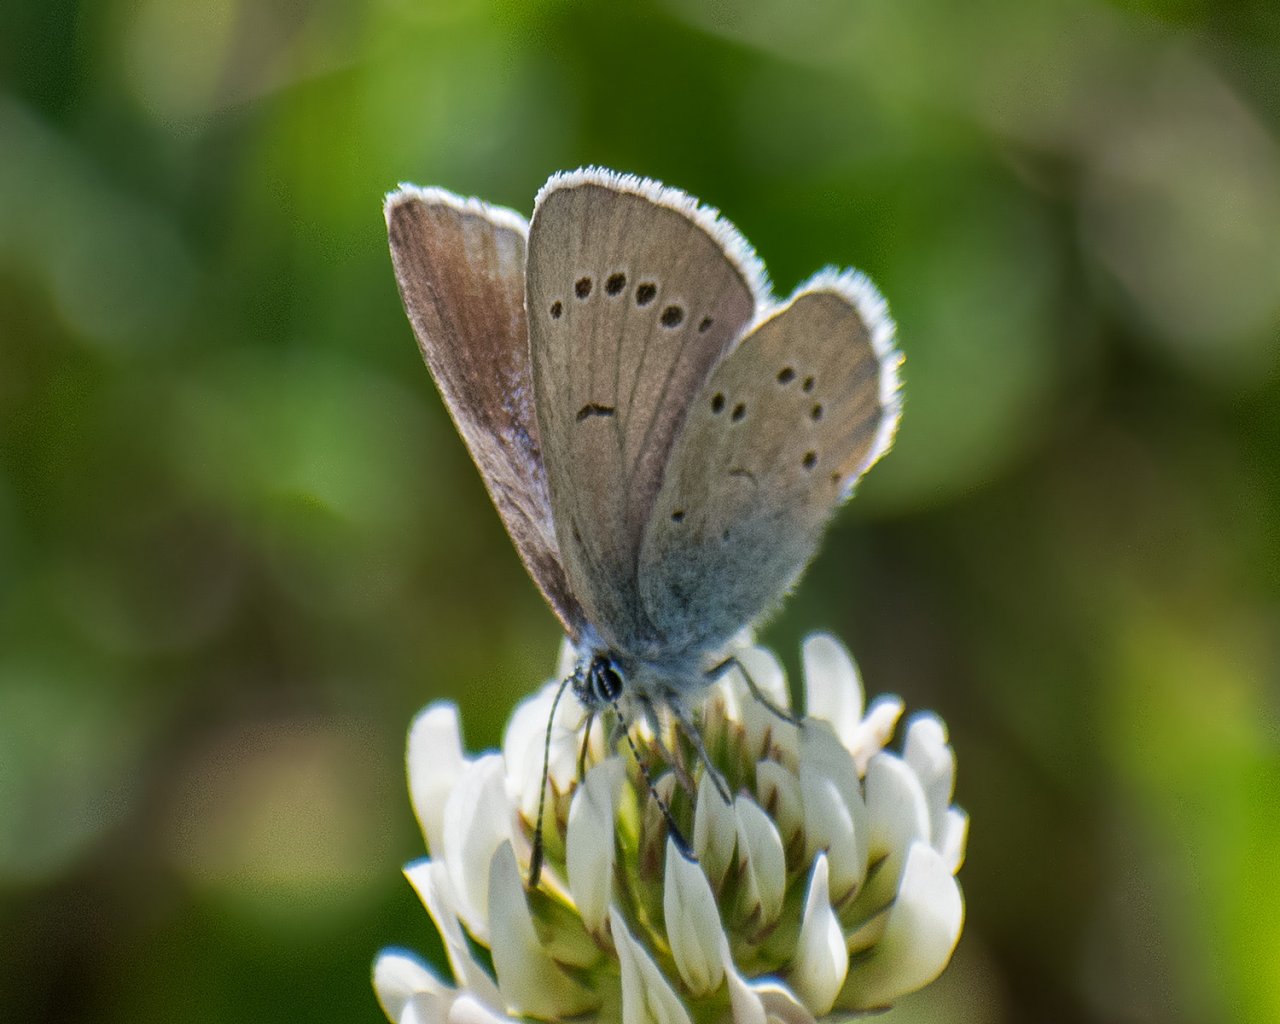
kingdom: Animalia
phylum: Arthropoda
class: Insecta
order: Lepidoptera
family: Lycaenidae
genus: Glaucopsyche
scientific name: Glaucopsyche lygdamus
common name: Silvery Blue
